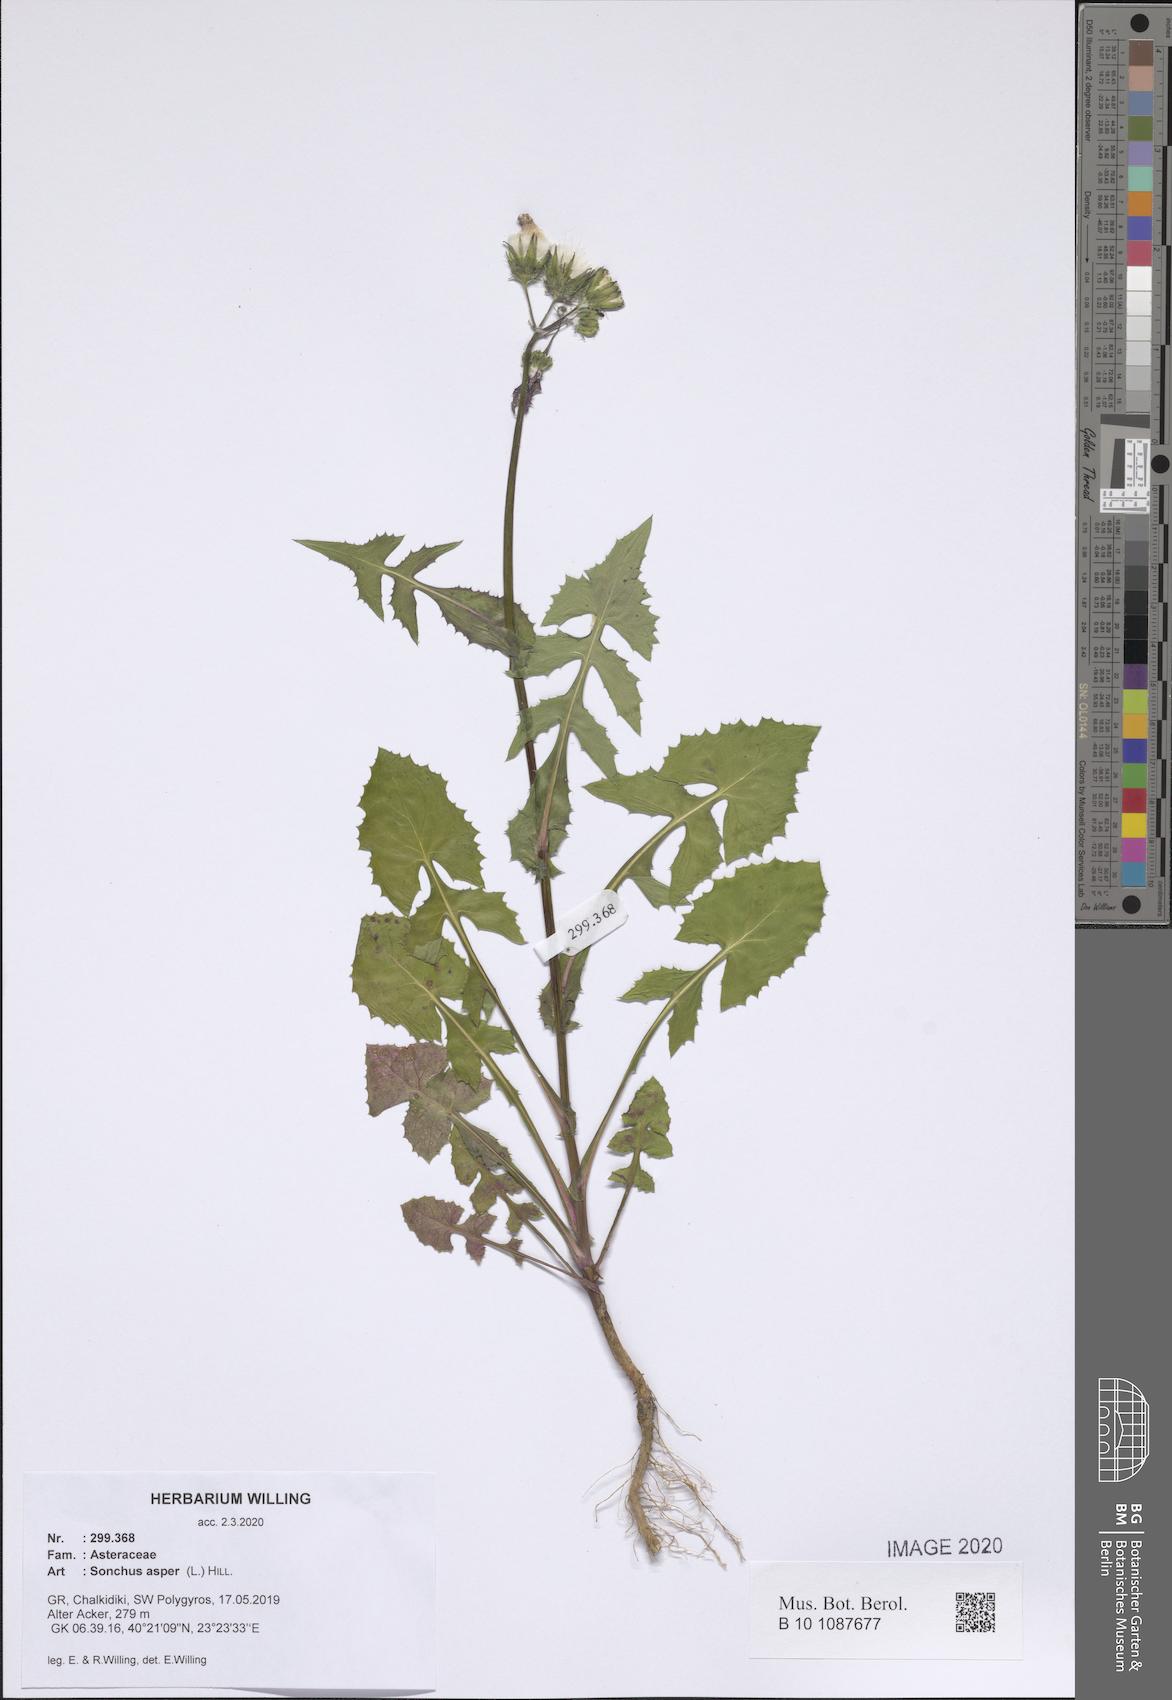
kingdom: Plantae
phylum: Tracheophyta
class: Magnoliopsida
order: Asterales
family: Asteraceae
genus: Sonchus
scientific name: Sonchus asper
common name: Prickly sow-thistle
